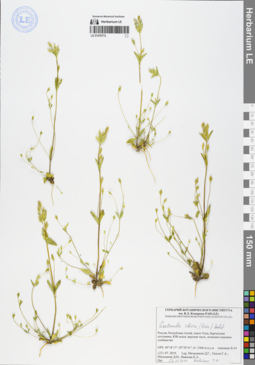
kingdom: Plantae
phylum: Tracheophyta
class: Magnoliopsida
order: Gentianales
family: Gentianaceae
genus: Gentianella
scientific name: Gentianella sibirica
